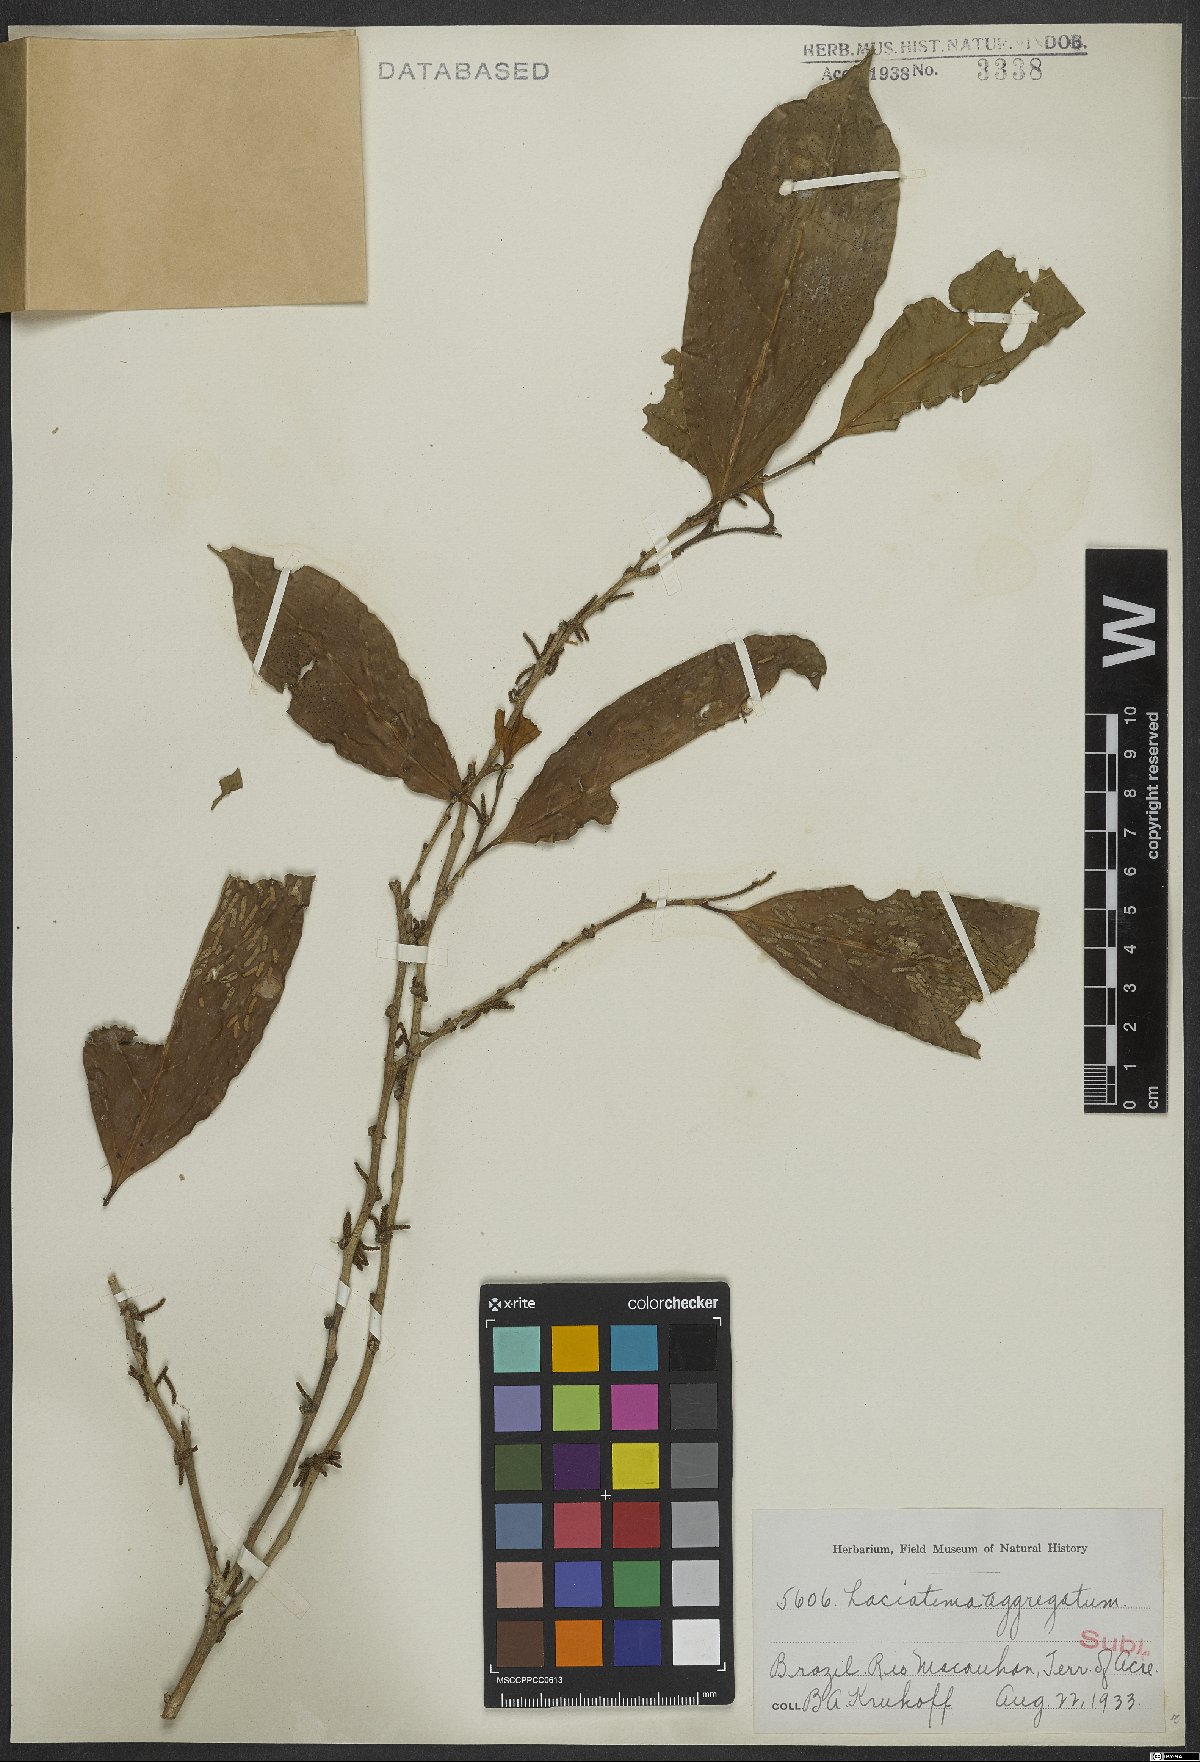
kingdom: Plantae
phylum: Tracheophyta
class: Magnoliopsida
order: Malpighiales
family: Lacistemataceae
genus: Lacistema
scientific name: Lacistema aggregatum
